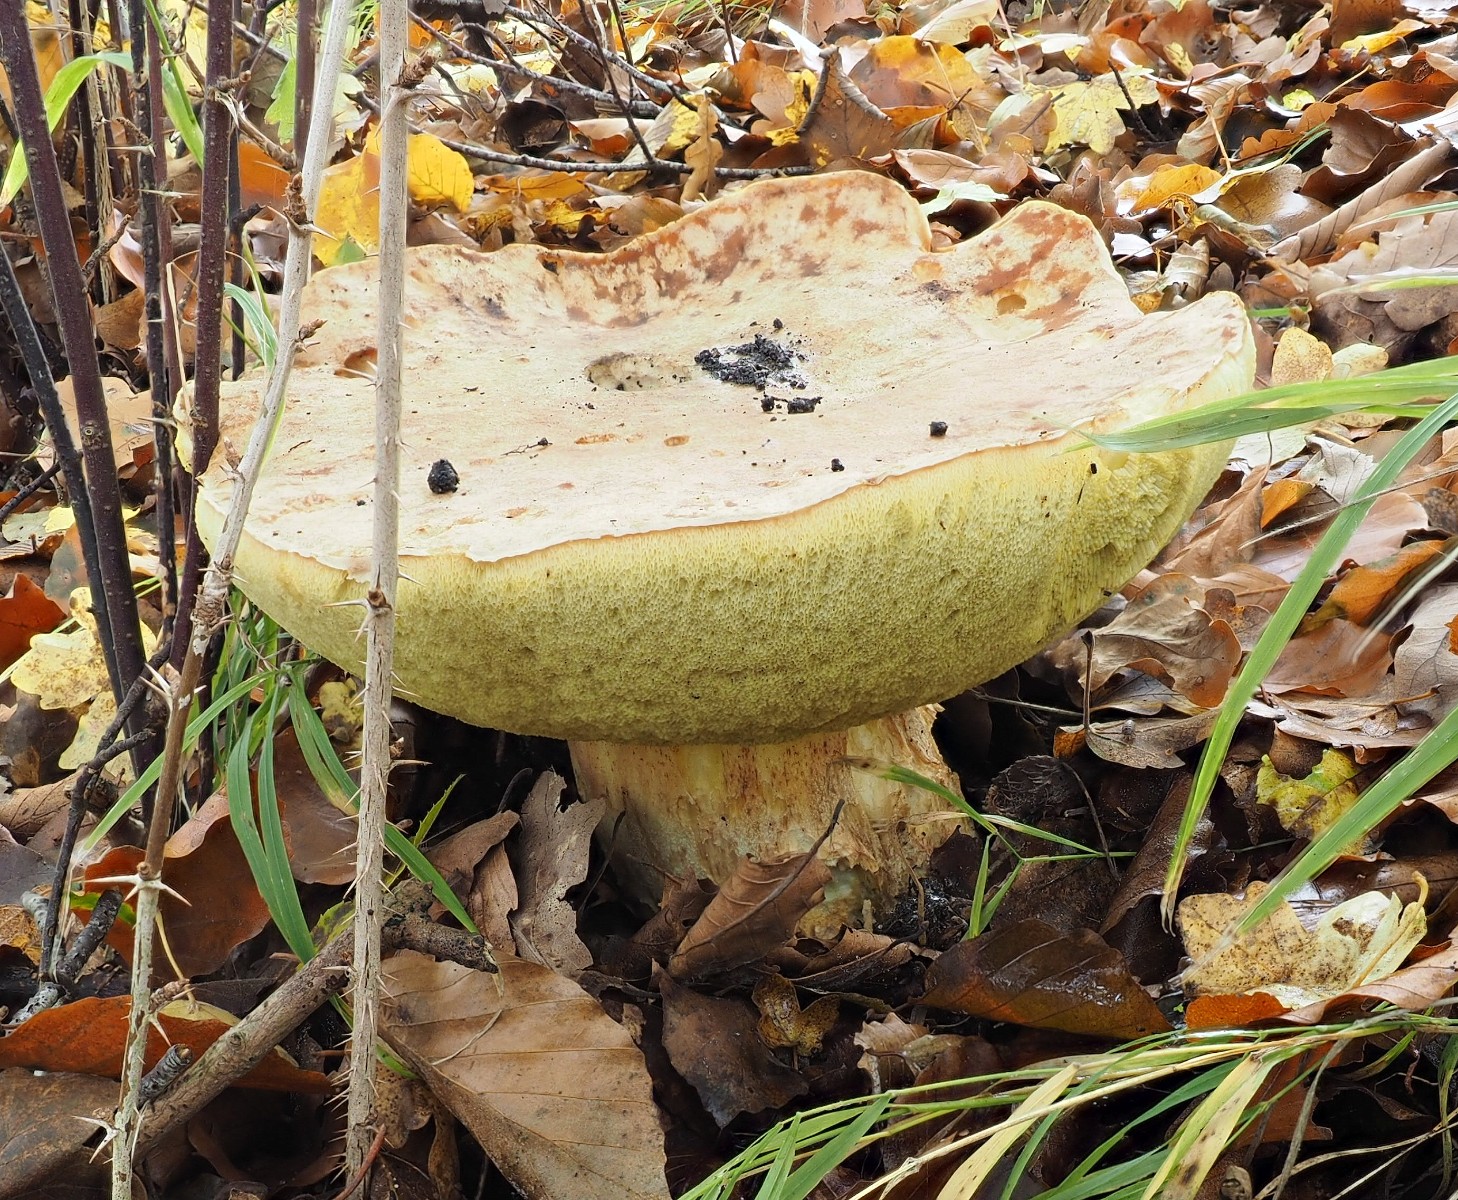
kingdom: Fungi
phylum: Basidiomycota
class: Agaricomycetes
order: Boletales
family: Boletaceae
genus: Hemileccinum
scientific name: Hemileccinum impolitum
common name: bleg rørhat
